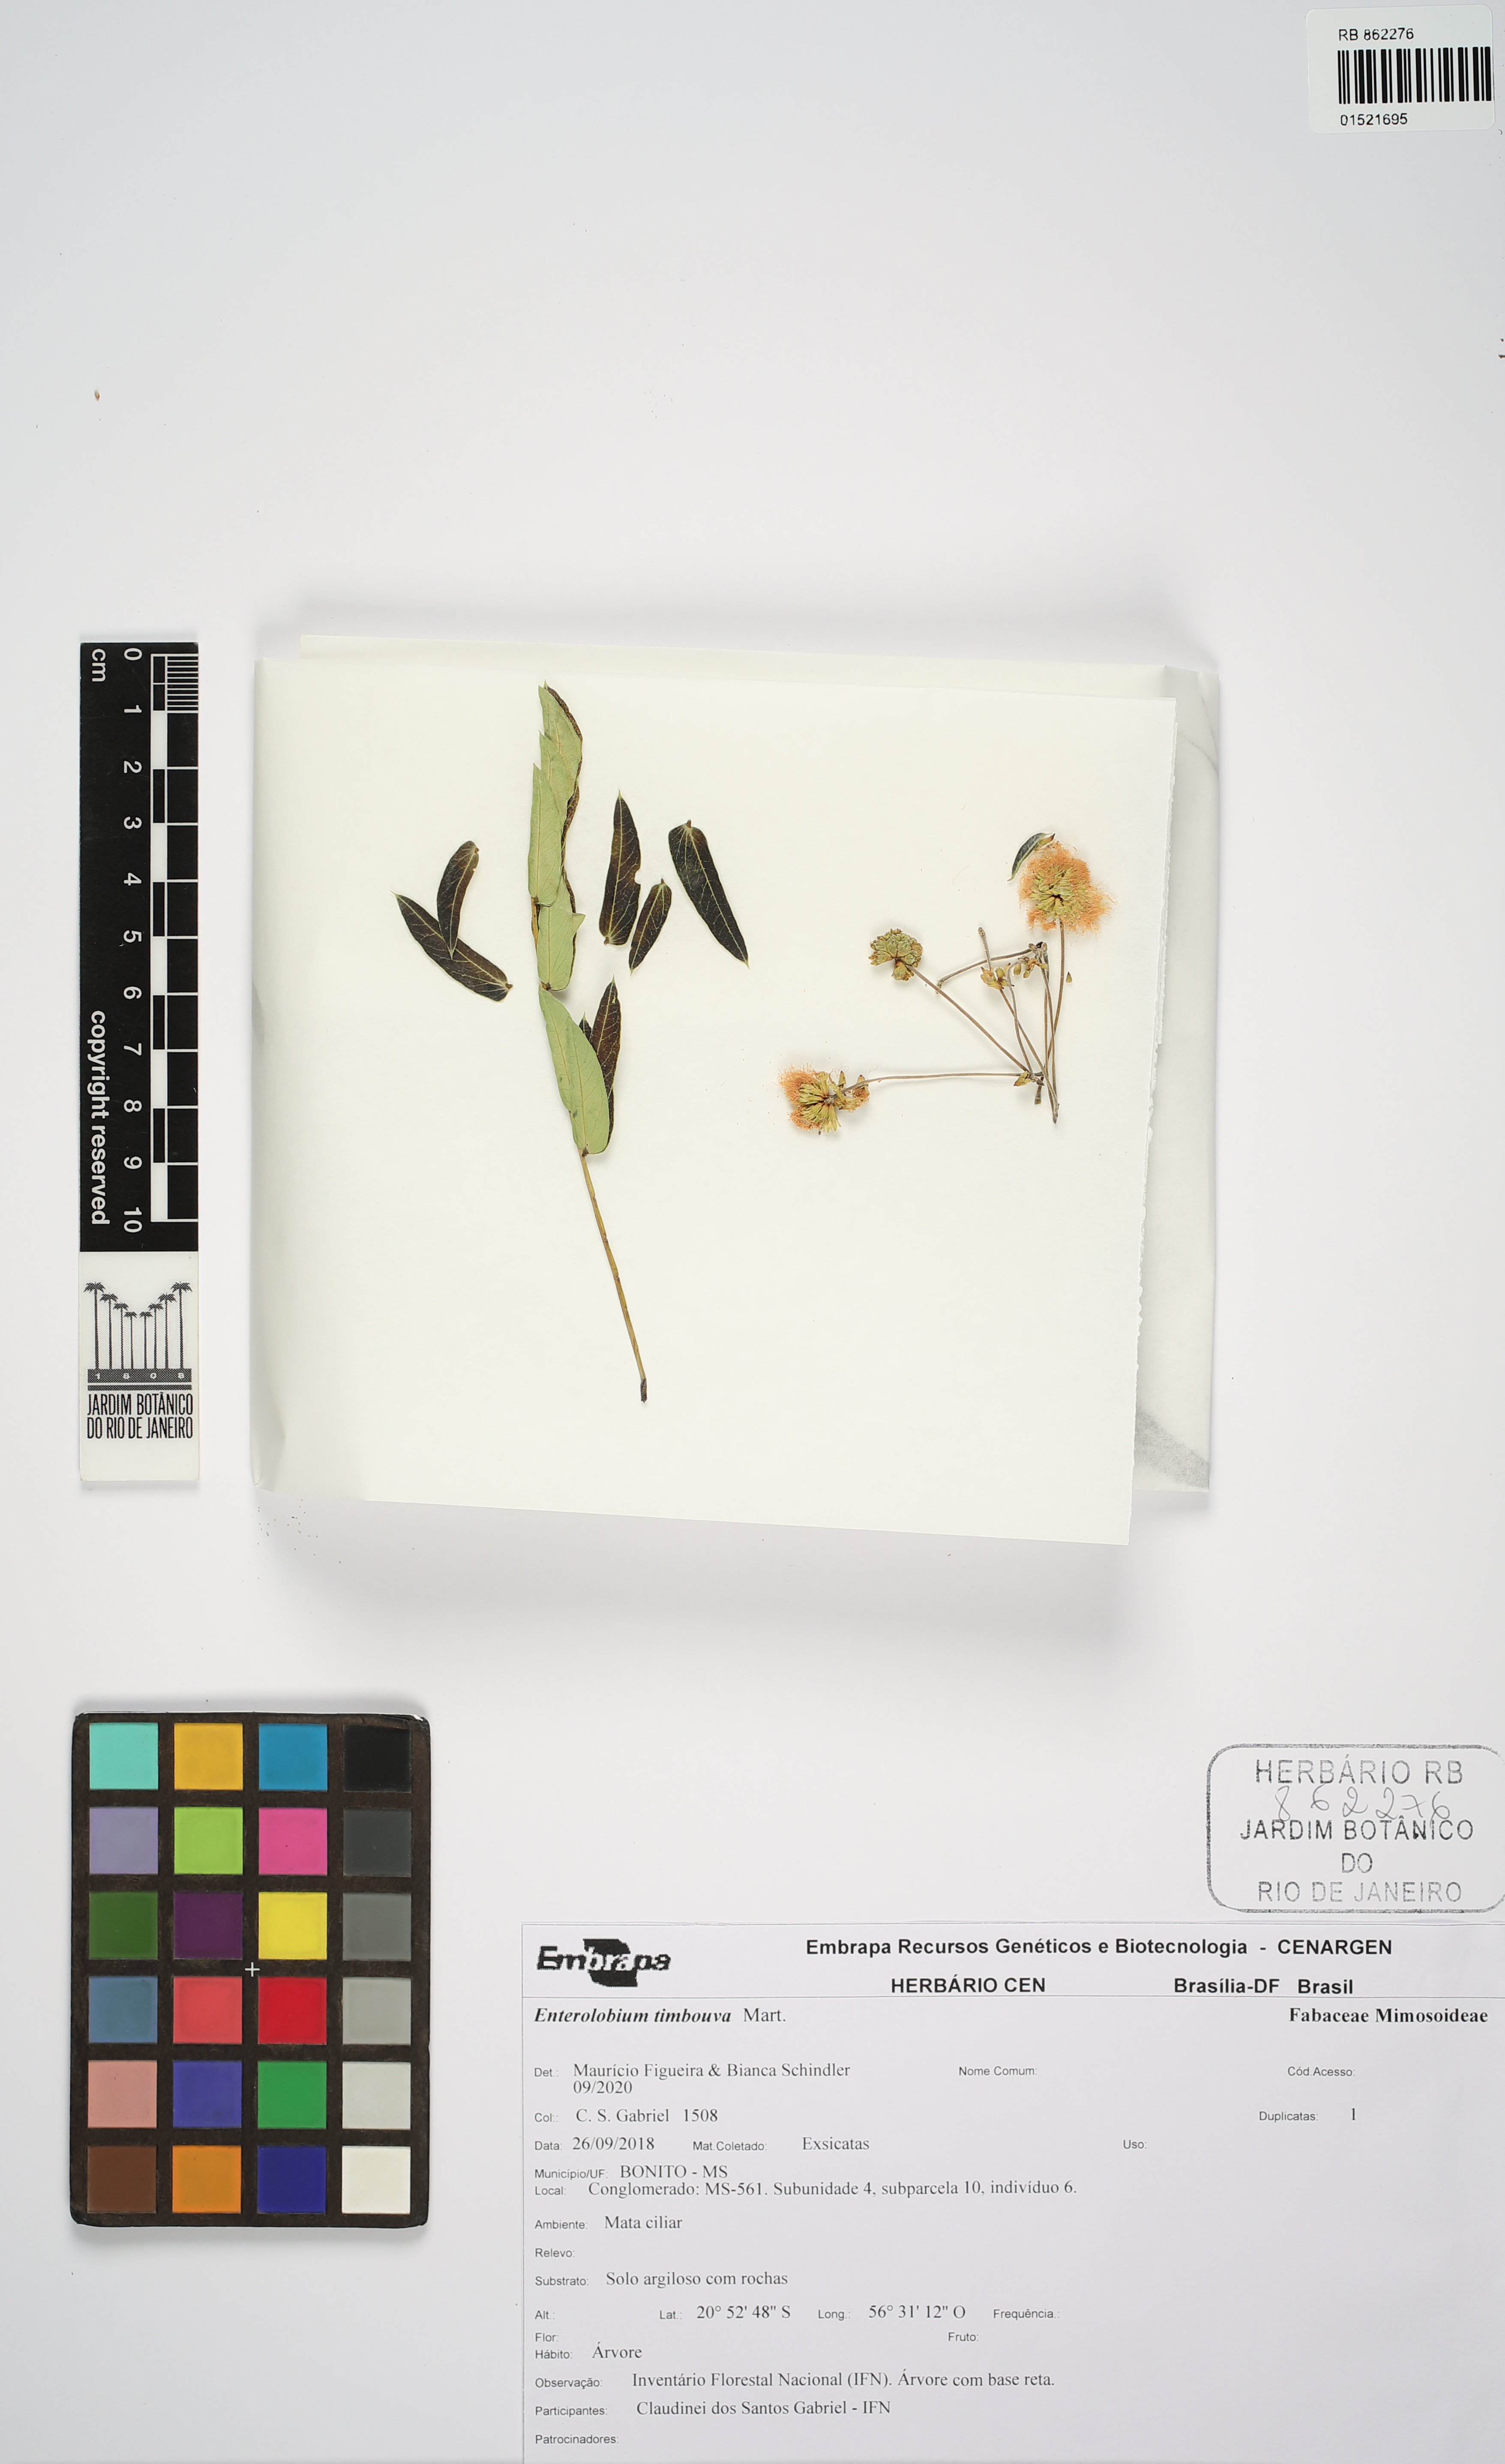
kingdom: Plantae
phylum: Tracheophyta
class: Magnoliopsida
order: Fabales
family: Fabaceae
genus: Enterolobium
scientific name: Enterolobium timbouva
